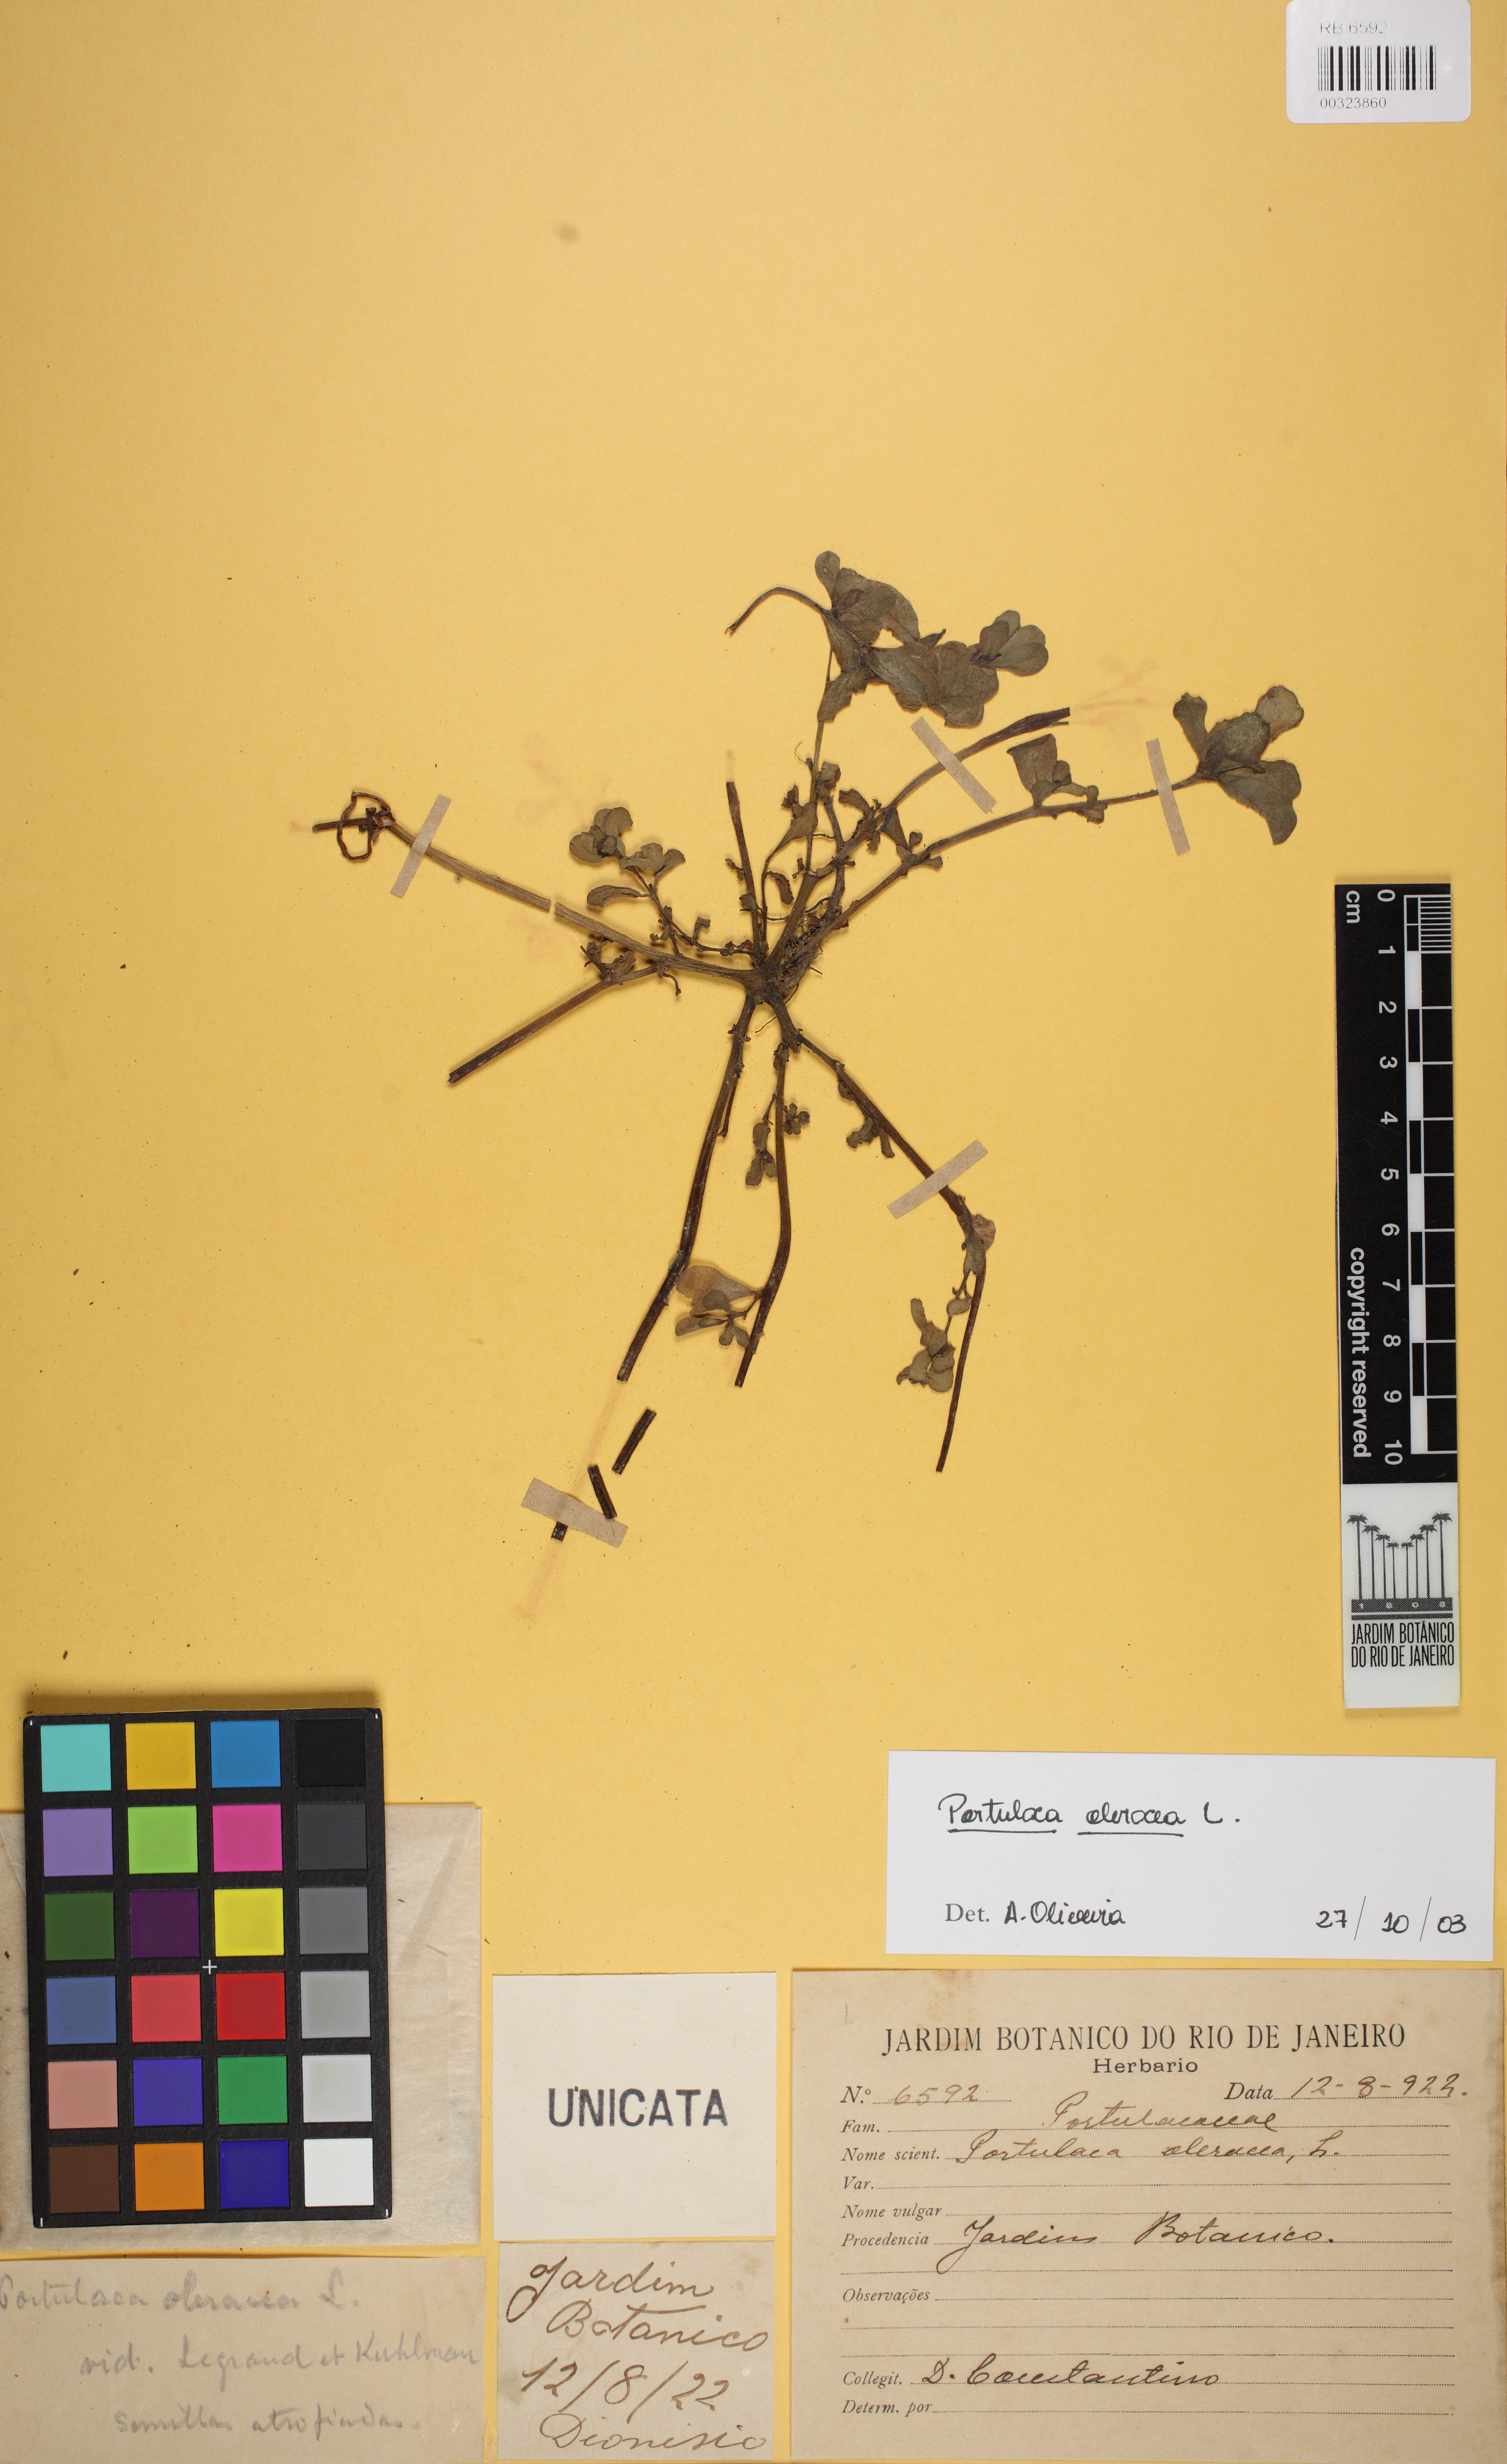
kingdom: Plantae
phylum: Tracheophyta
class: Magnoliopsida
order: Caryophyllales
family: Portulacaceae
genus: Portulaca
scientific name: Portulaca oleracea
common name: Common purslane
